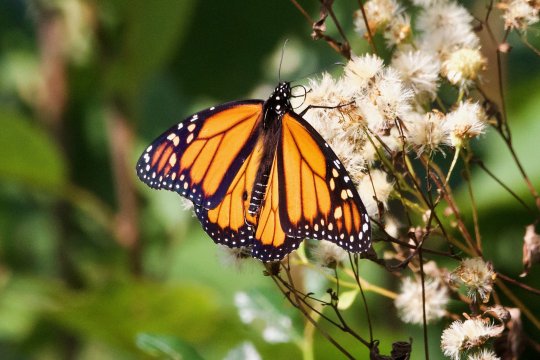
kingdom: Animalia
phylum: Arthropoda
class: Insecta
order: Lepidoptera
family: Nymphalidae
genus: Danaus
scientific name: Danaus plexippus
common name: Monarch
